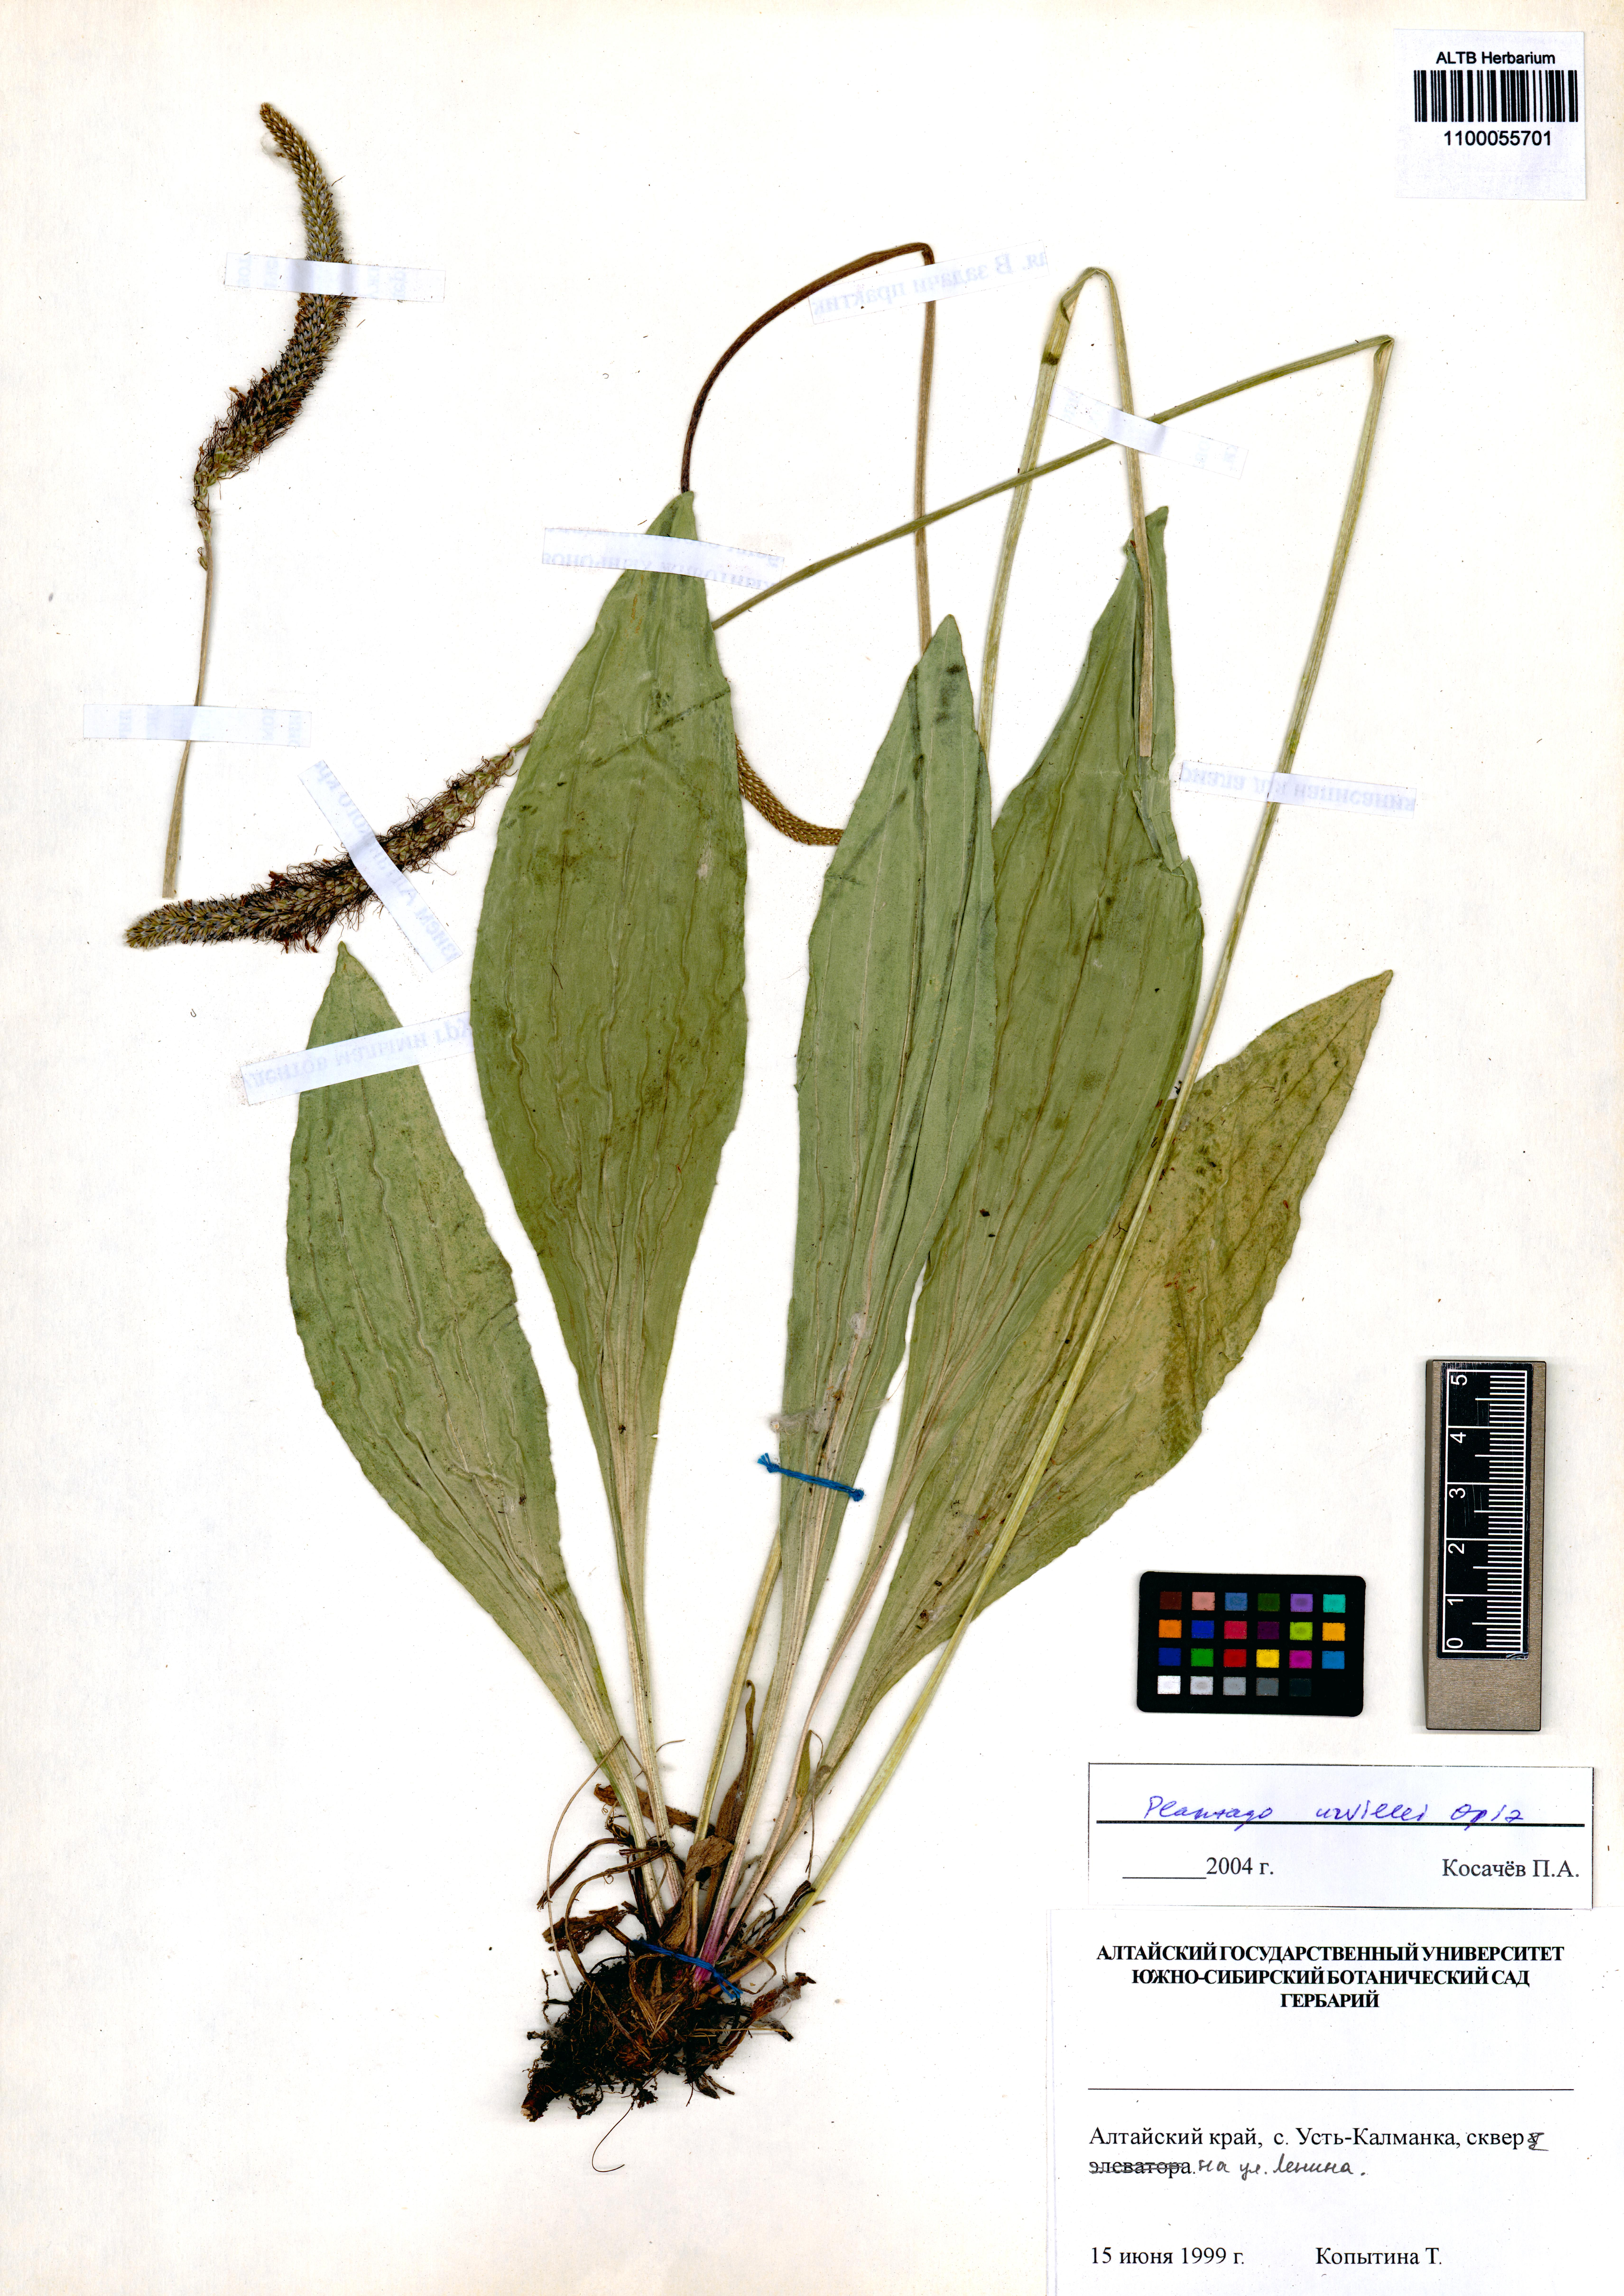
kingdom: Plantae
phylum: Tracheophyta
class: Magnoliopsida
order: Lamiales
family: Plantaginaceae
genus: Plantago
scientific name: Plantago urvillei
